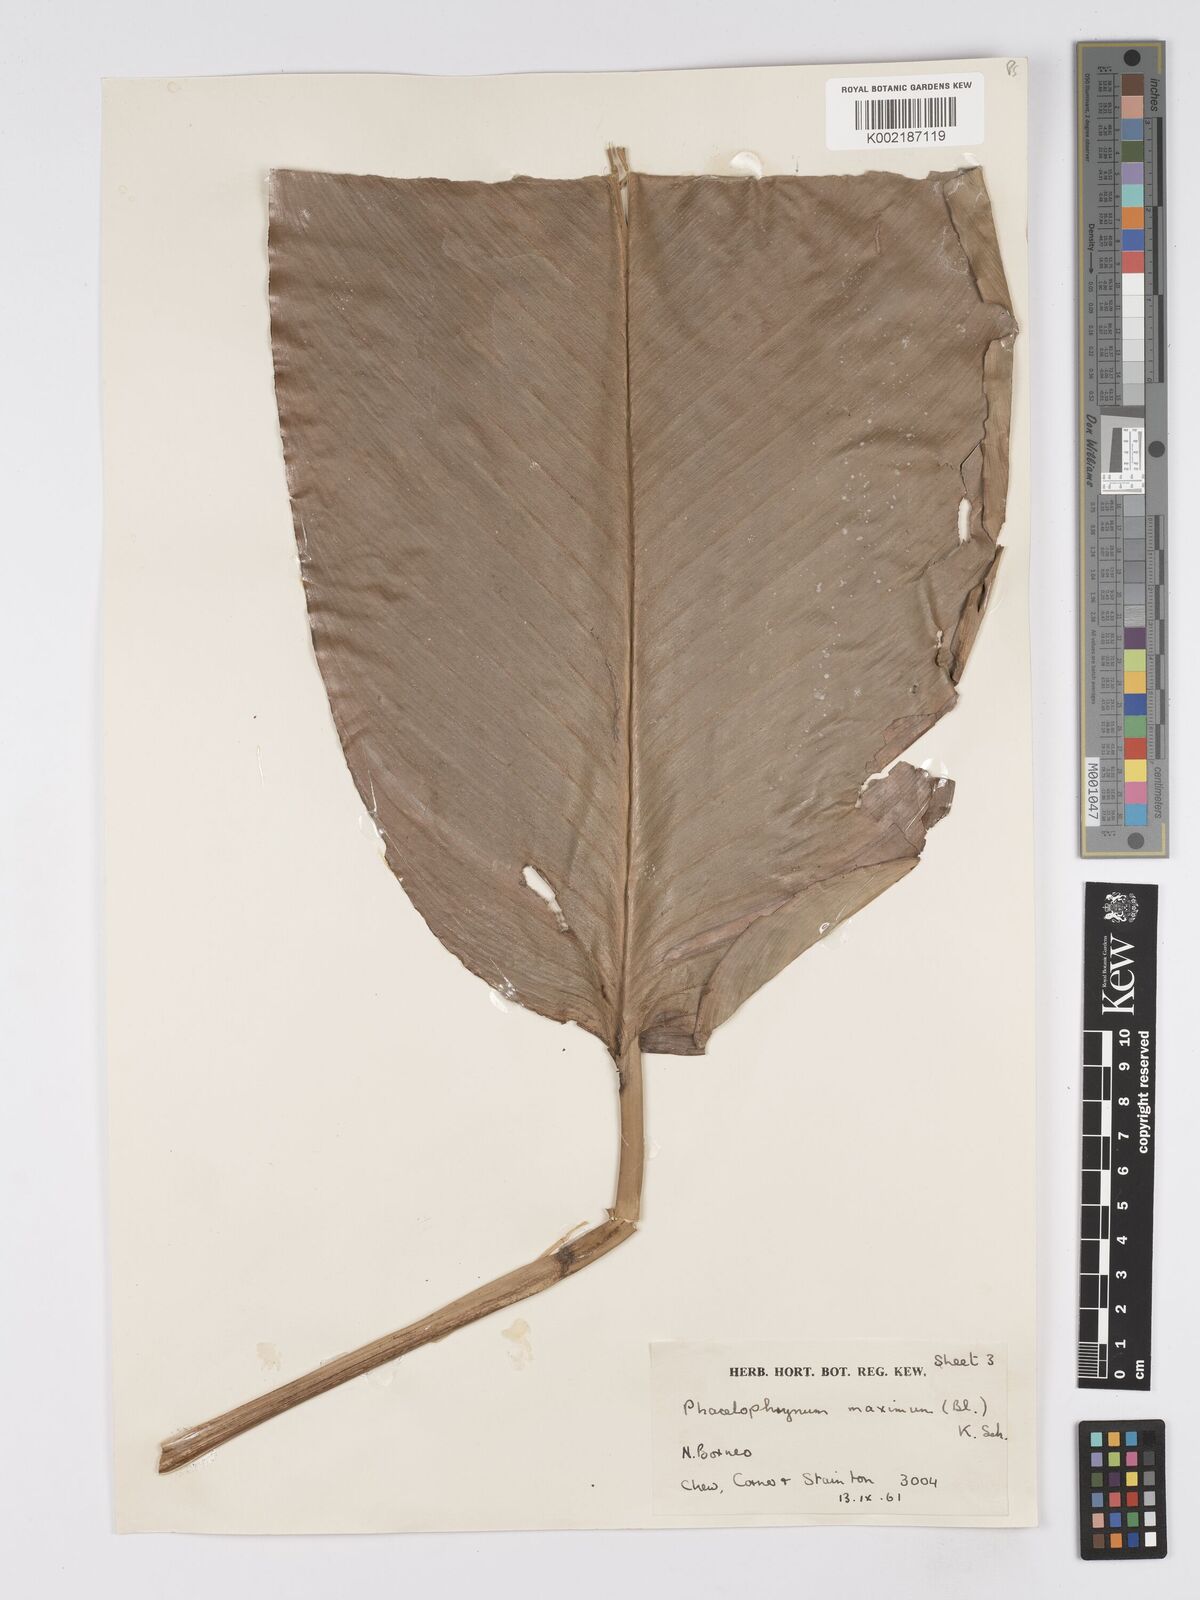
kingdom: Plantae
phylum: Tracheophyta
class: Liliopsida
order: Zingiberales
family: Marantaceae
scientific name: Marantaceae
